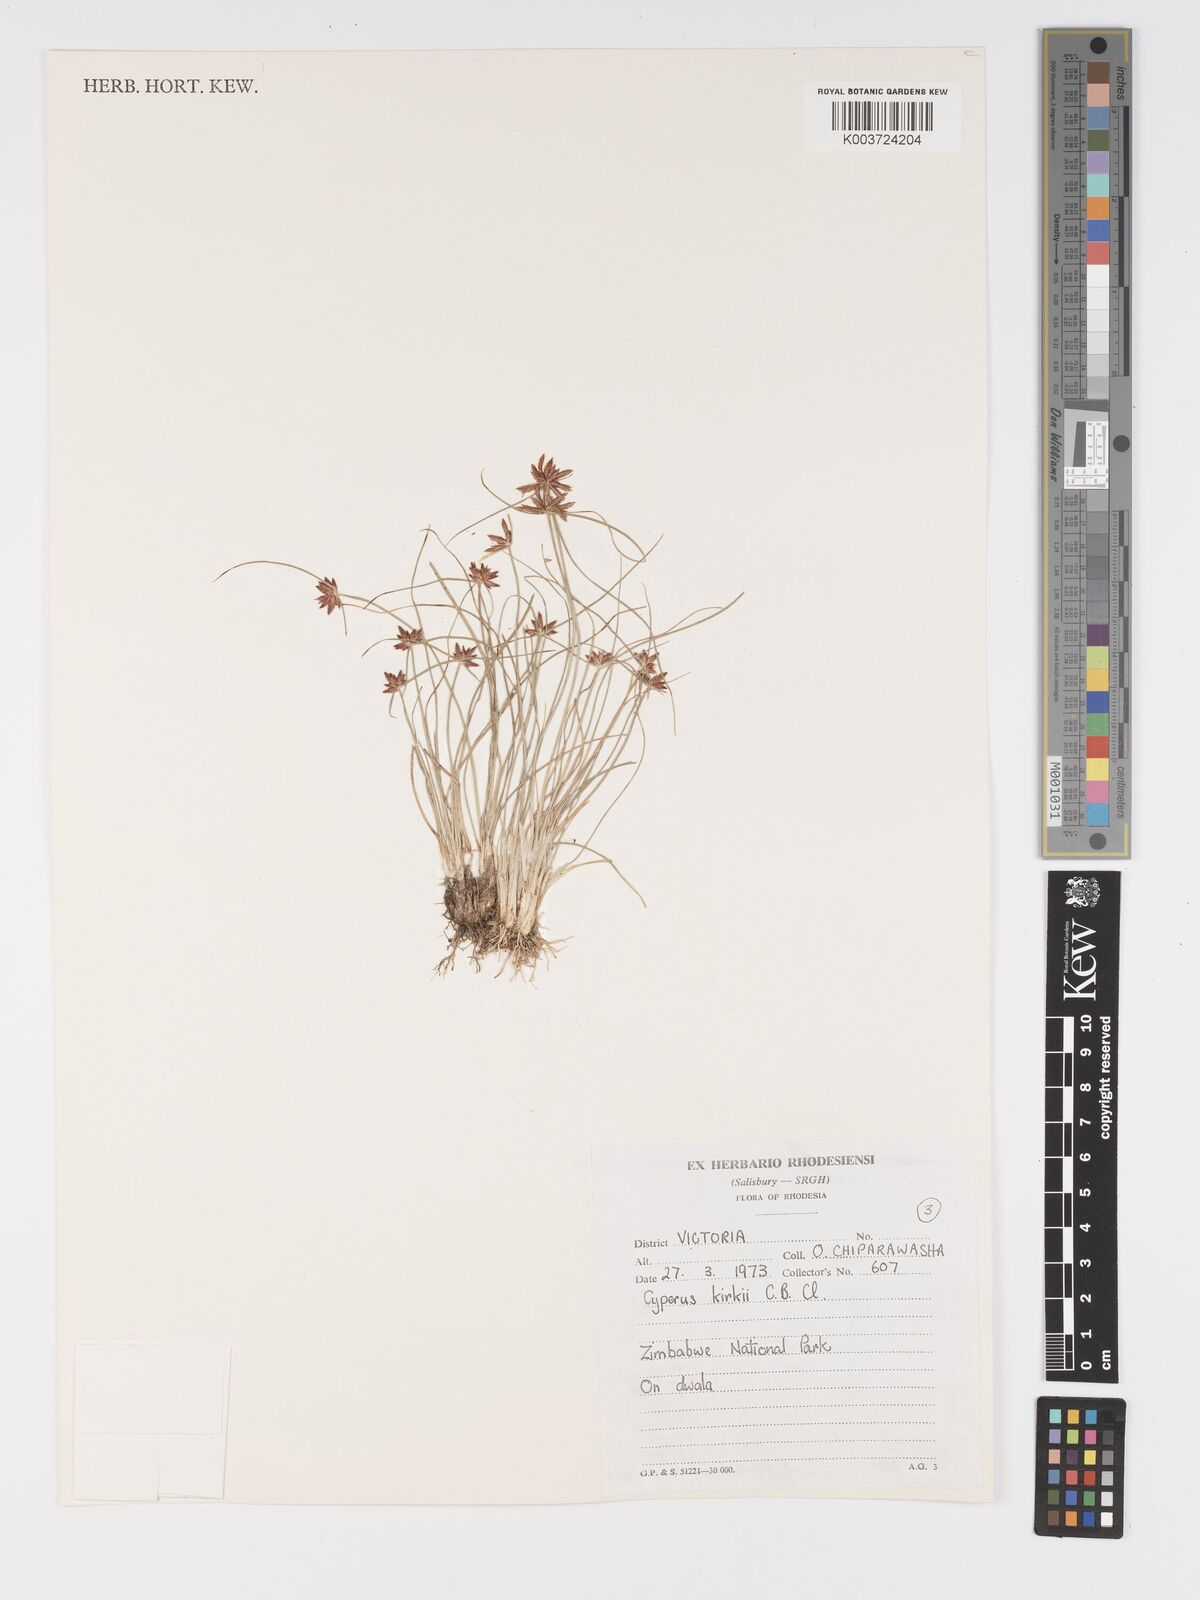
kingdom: Plantae
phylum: Tracheophyta
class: Liliopsida
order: Poales
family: Cyperaceae
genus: Cyperus
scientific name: Cyperus semitrifidus
